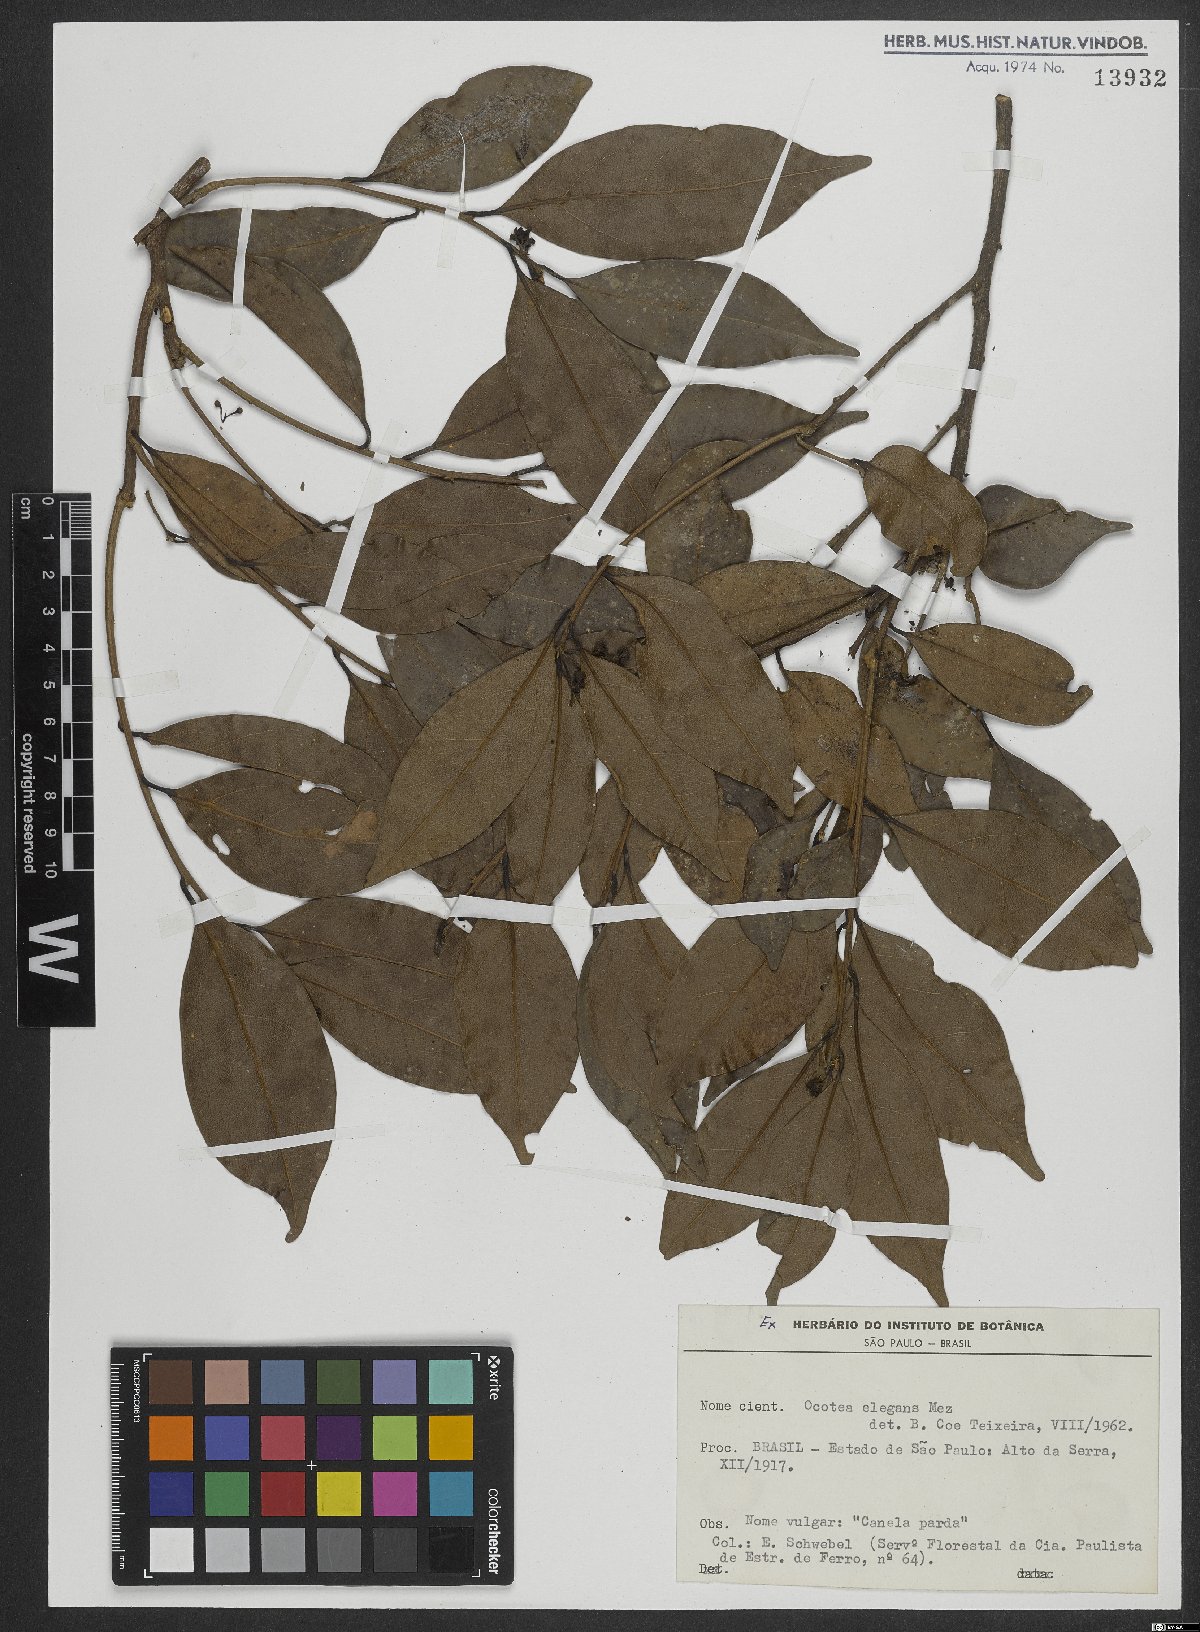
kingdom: Plantae
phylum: Tracheophyta
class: Magnoliopsida
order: Laurales
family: Lauraceae
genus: Ocotea
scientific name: Ocotea elegans
